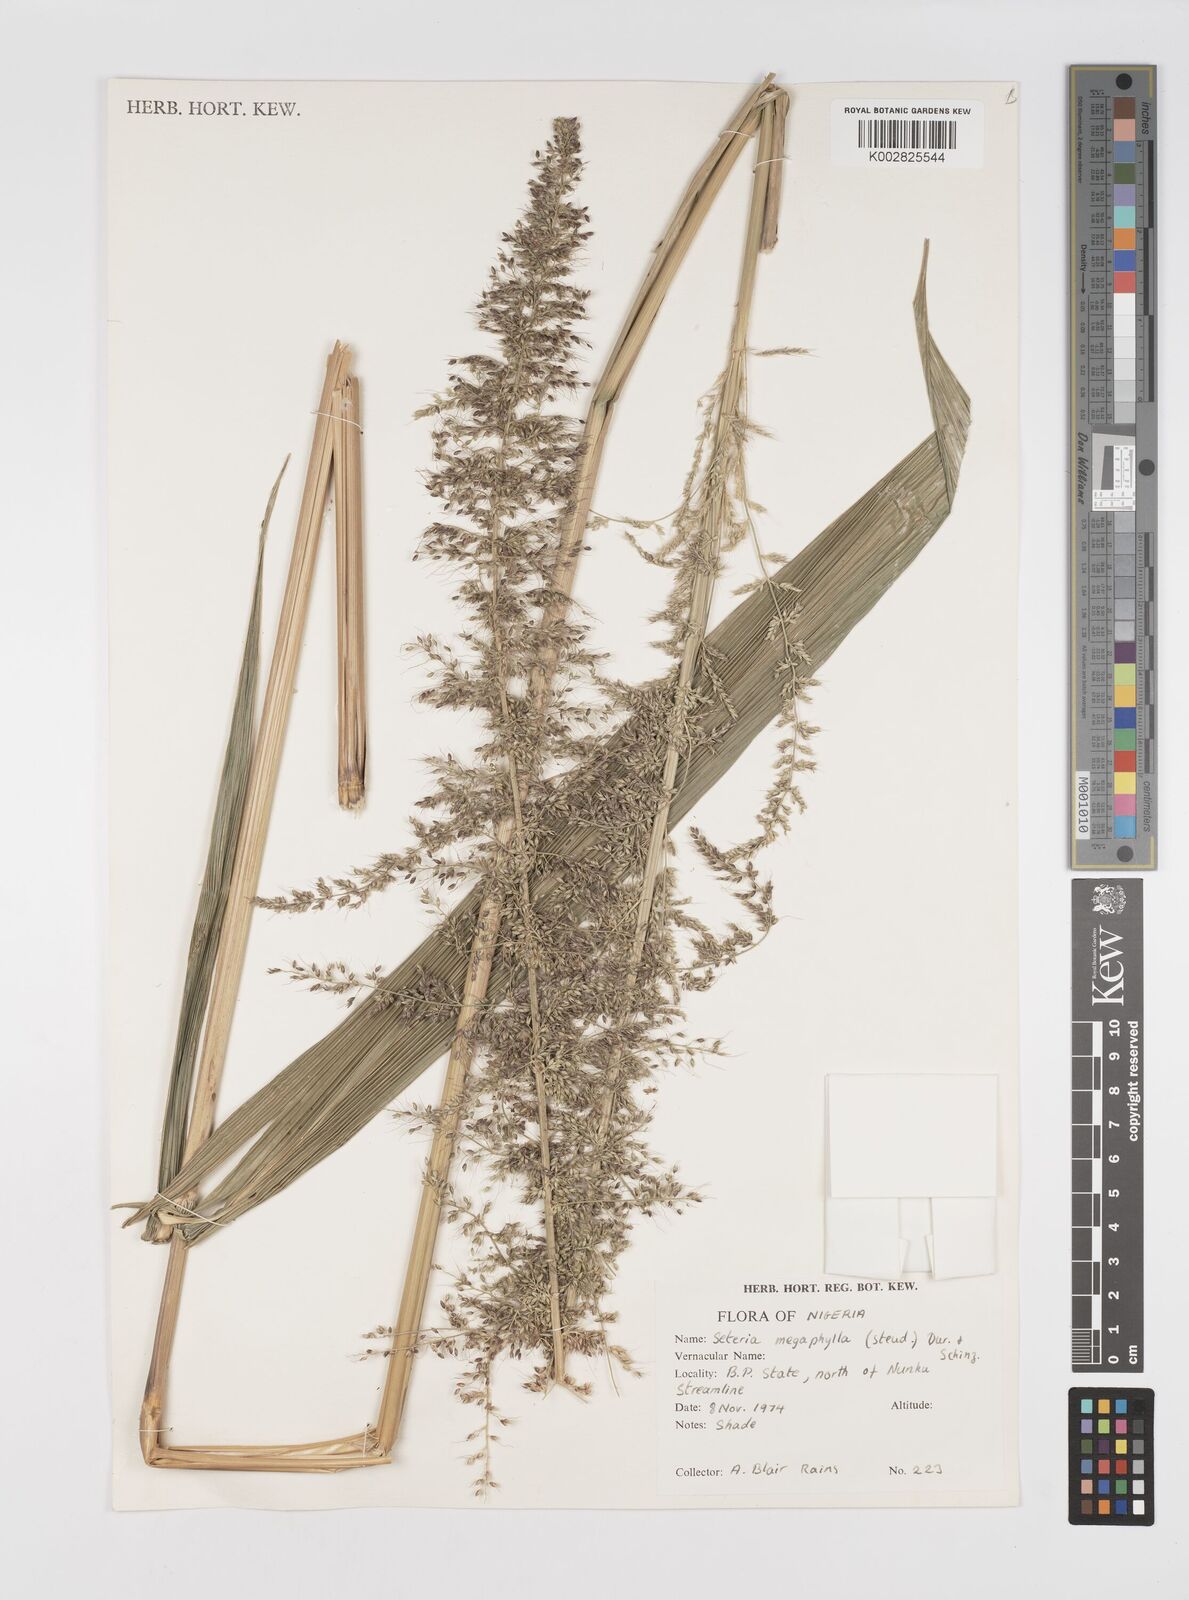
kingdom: Plantae
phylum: Tracheophyta
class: Liliopsida
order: Poales
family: Poaceae
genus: Setaria
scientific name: Setaria megaphylla
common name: Bigleaf bristlegrass
